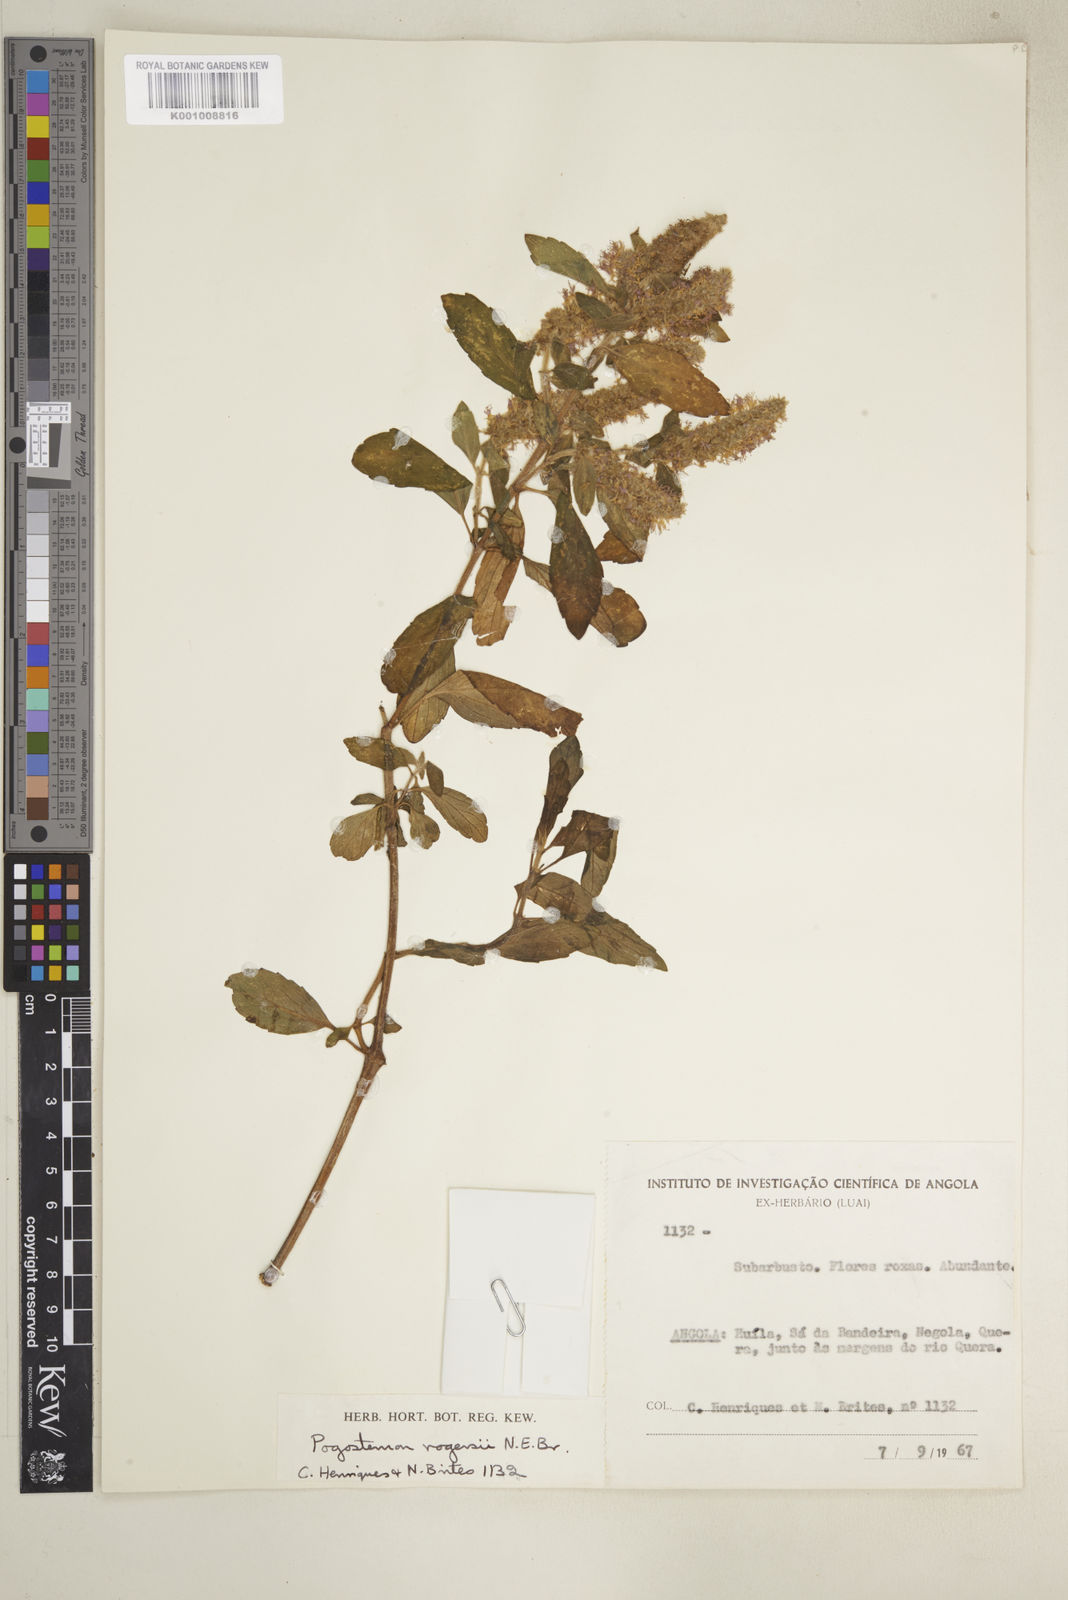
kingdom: Plantae
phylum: Tracheophyta
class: Magnoliopsida
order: Lamiales
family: Lamiaceae
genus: Pogostemon
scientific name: Pogostemon rogersii
